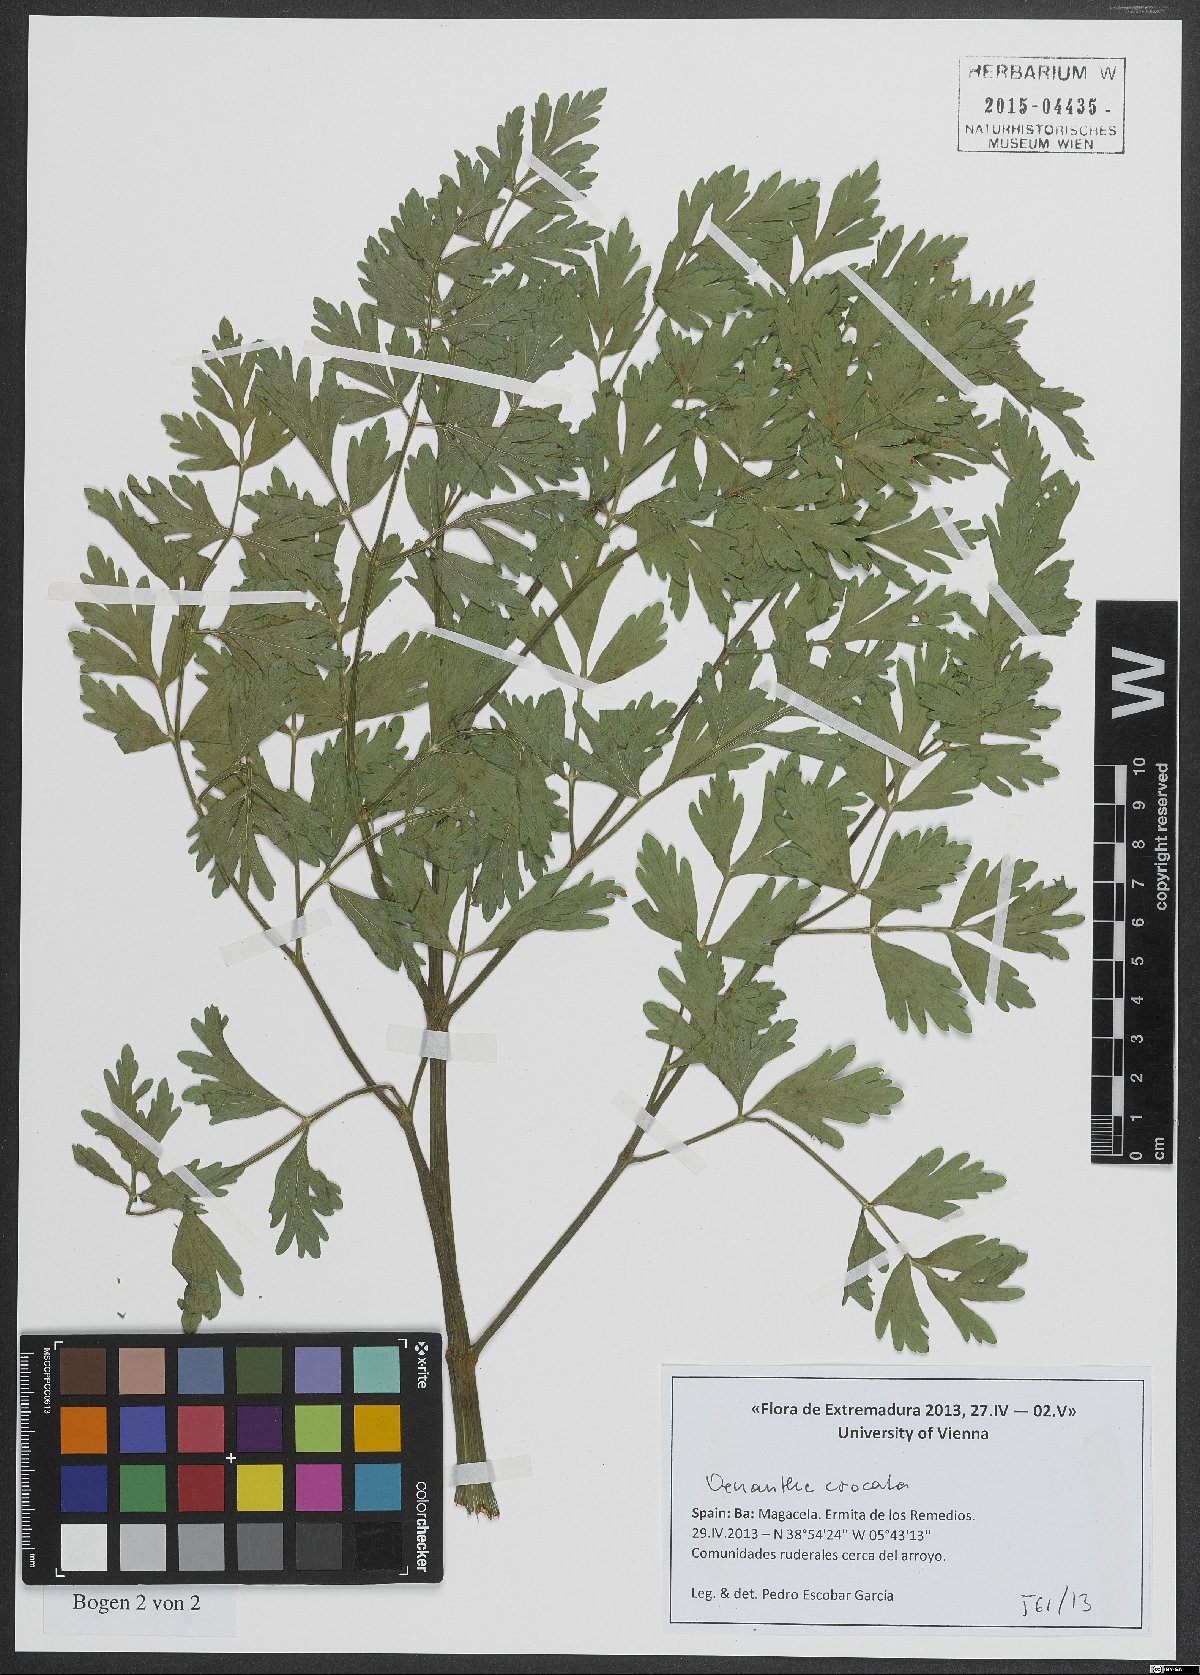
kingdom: Plantae
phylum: Tracheophyta
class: Magnoliopsida
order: Apiales
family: Apiaceae
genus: Oenanthe
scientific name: Oenanthe crocata
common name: Hemlock water-dropwort
